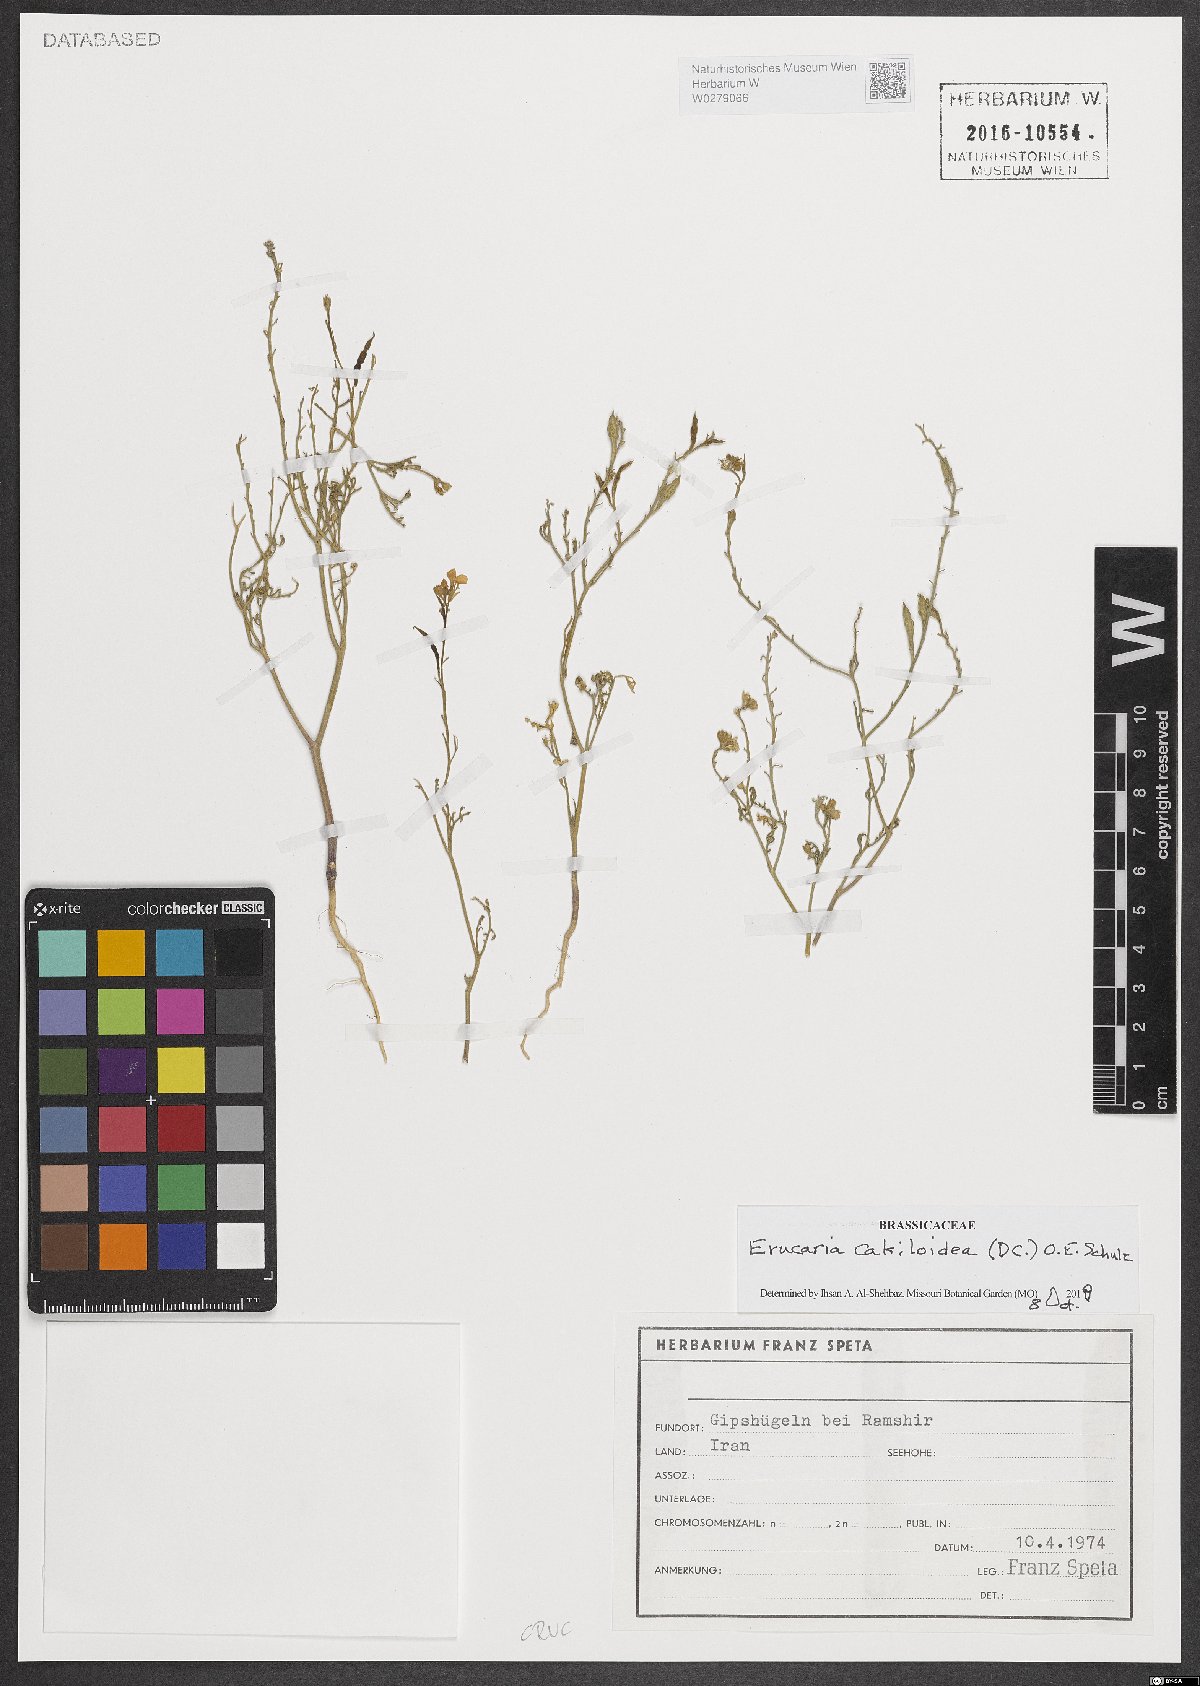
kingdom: Plantae
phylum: Tracheophyta
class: Magnoliopsida
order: Brassicales
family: Brassicaceae
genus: Erucaria
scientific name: Erucaria cakiloidea
